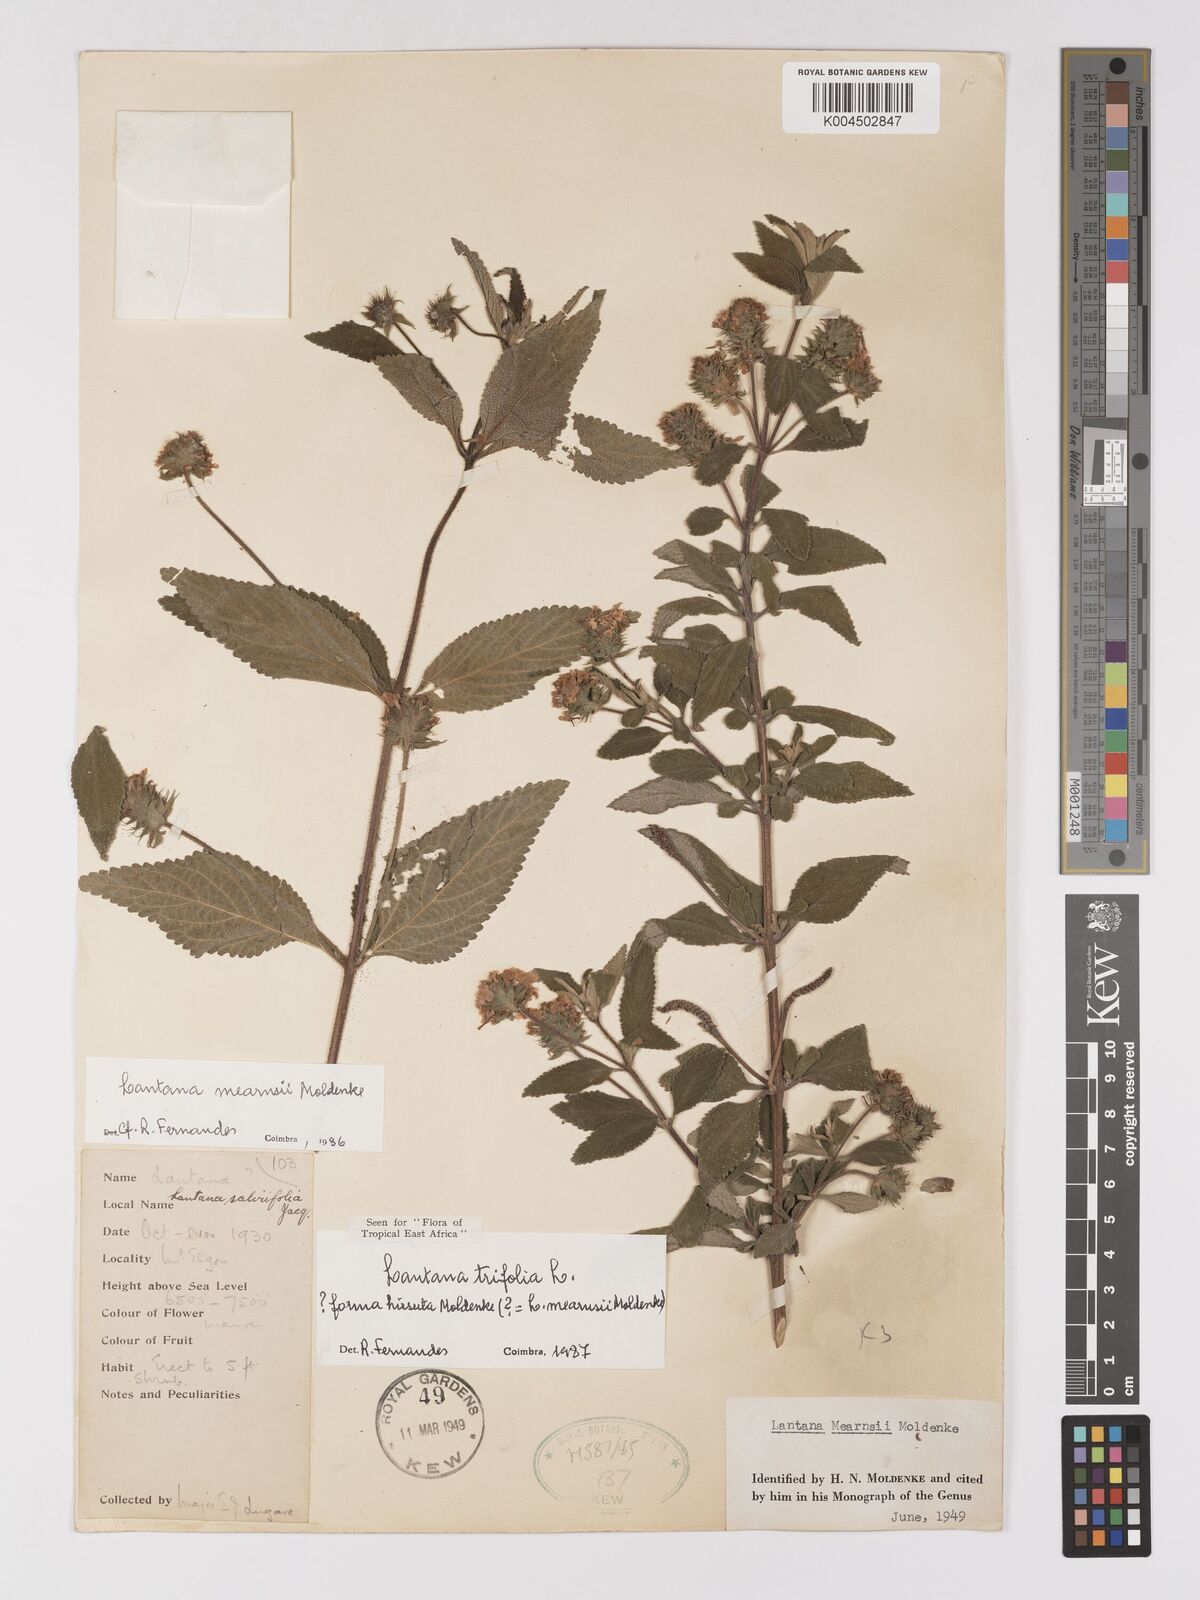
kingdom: Plantae
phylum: Tracheophyta
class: Magnoliopsida
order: Lamiales
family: Verbenaceae
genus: Lantana
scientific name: Lantana trifolia
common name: Sweet-sage
